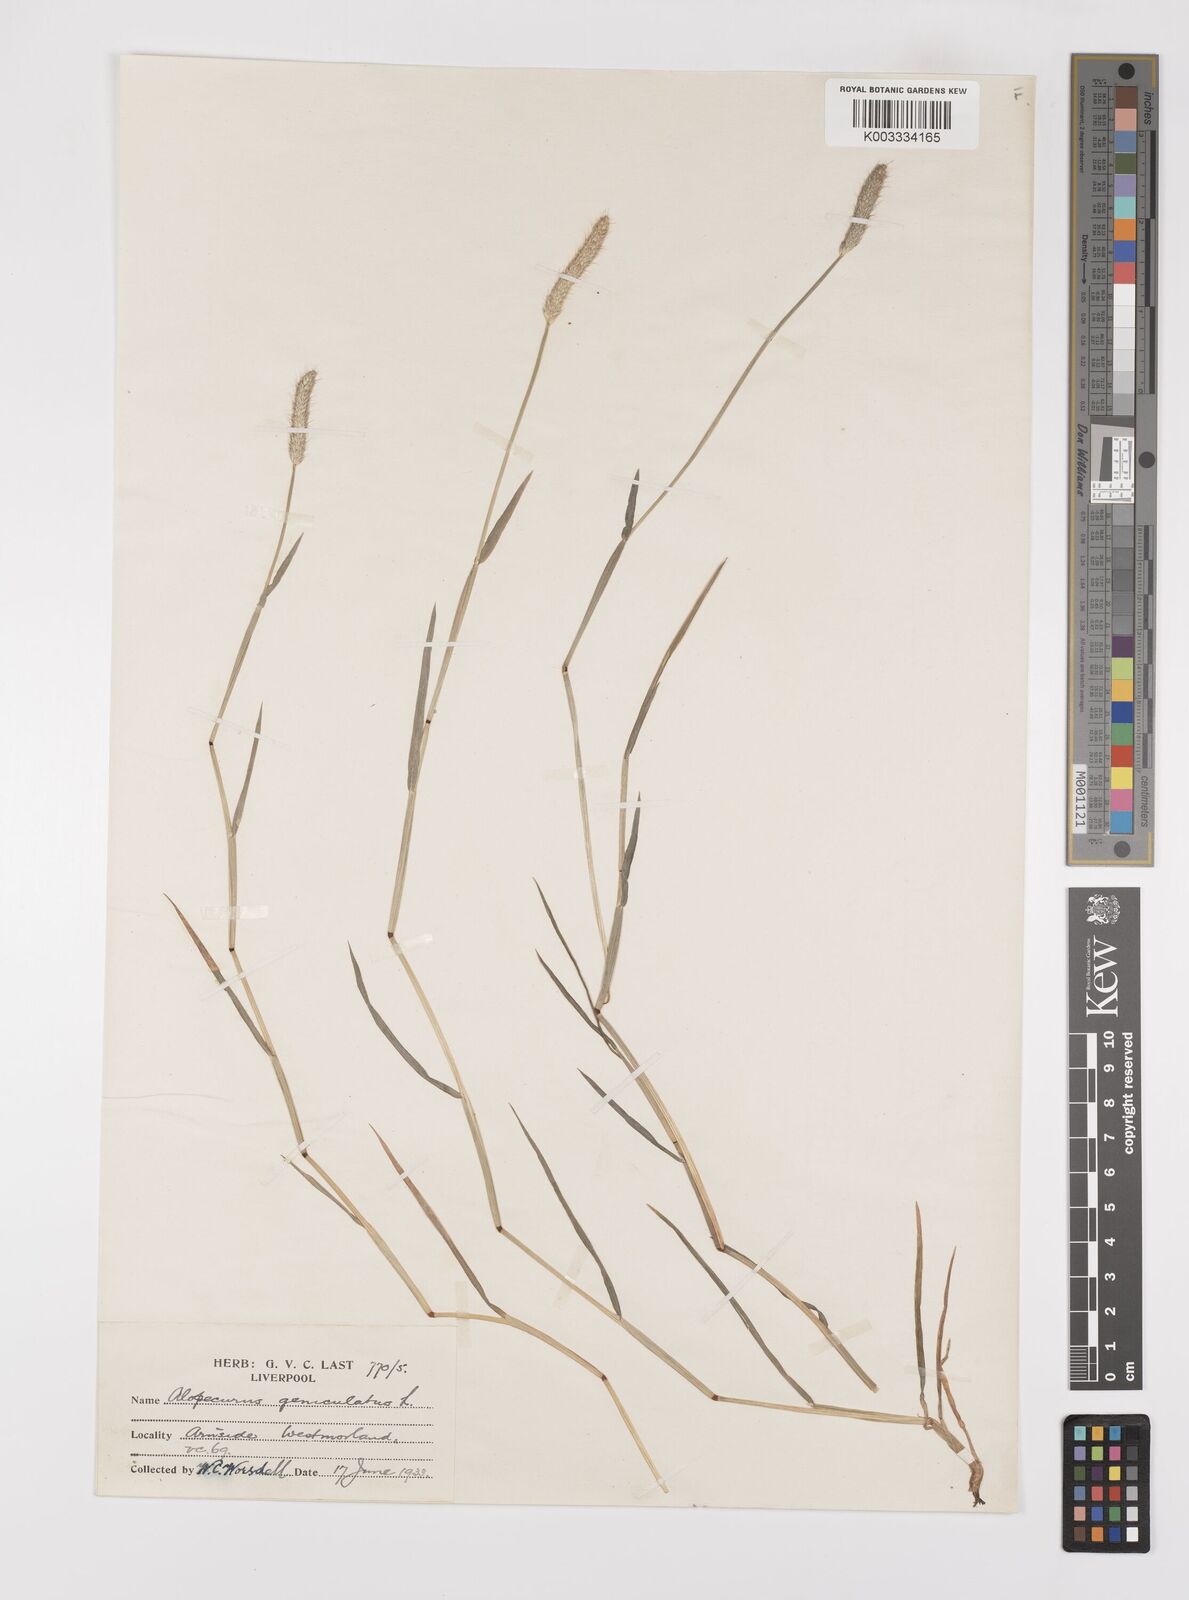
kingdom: Plantae
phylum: Tracheophyta
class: Liliopsida
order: Poales
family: Poaceae
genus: Alopecurus
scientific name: Alopecurus geniculatus
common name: Water foxtail
